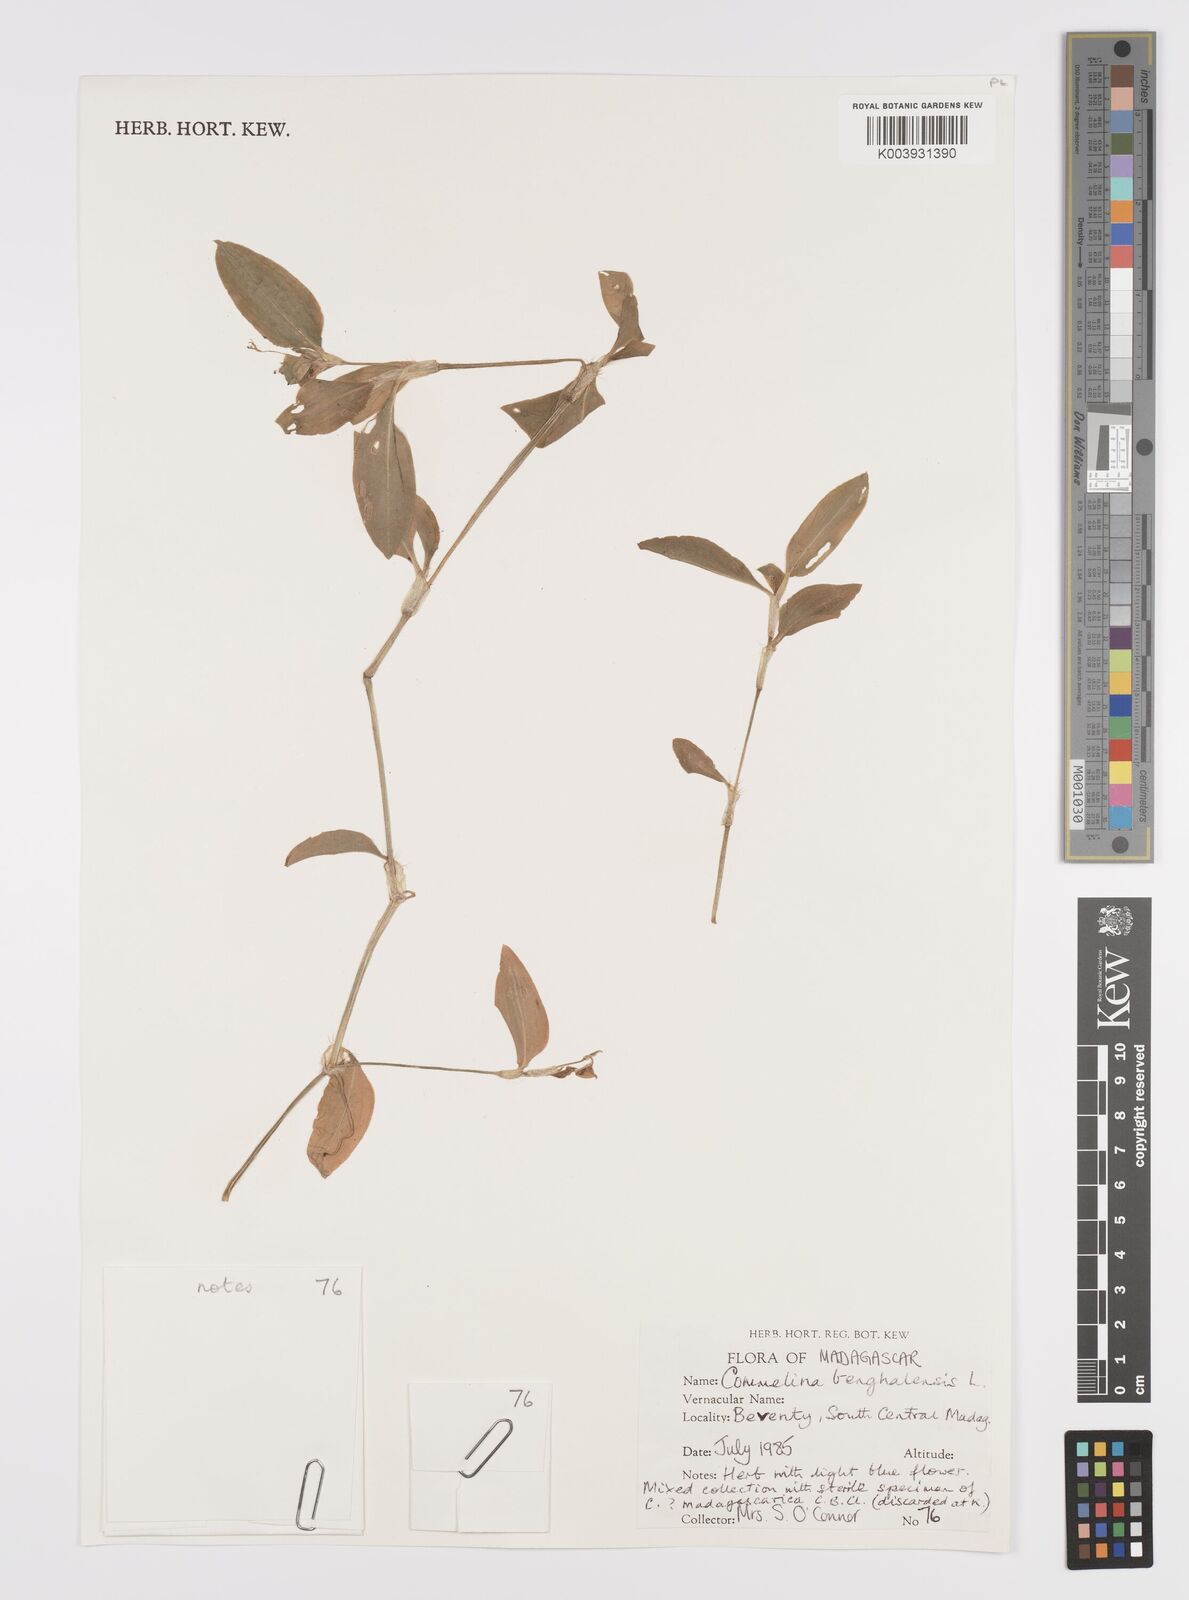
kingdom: Plantae
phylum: Tracheophyta
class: Liliopsida
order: Commelinales
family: Commelinaceae
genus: Commelina
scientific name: Commelina benghalensis
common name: Jio
